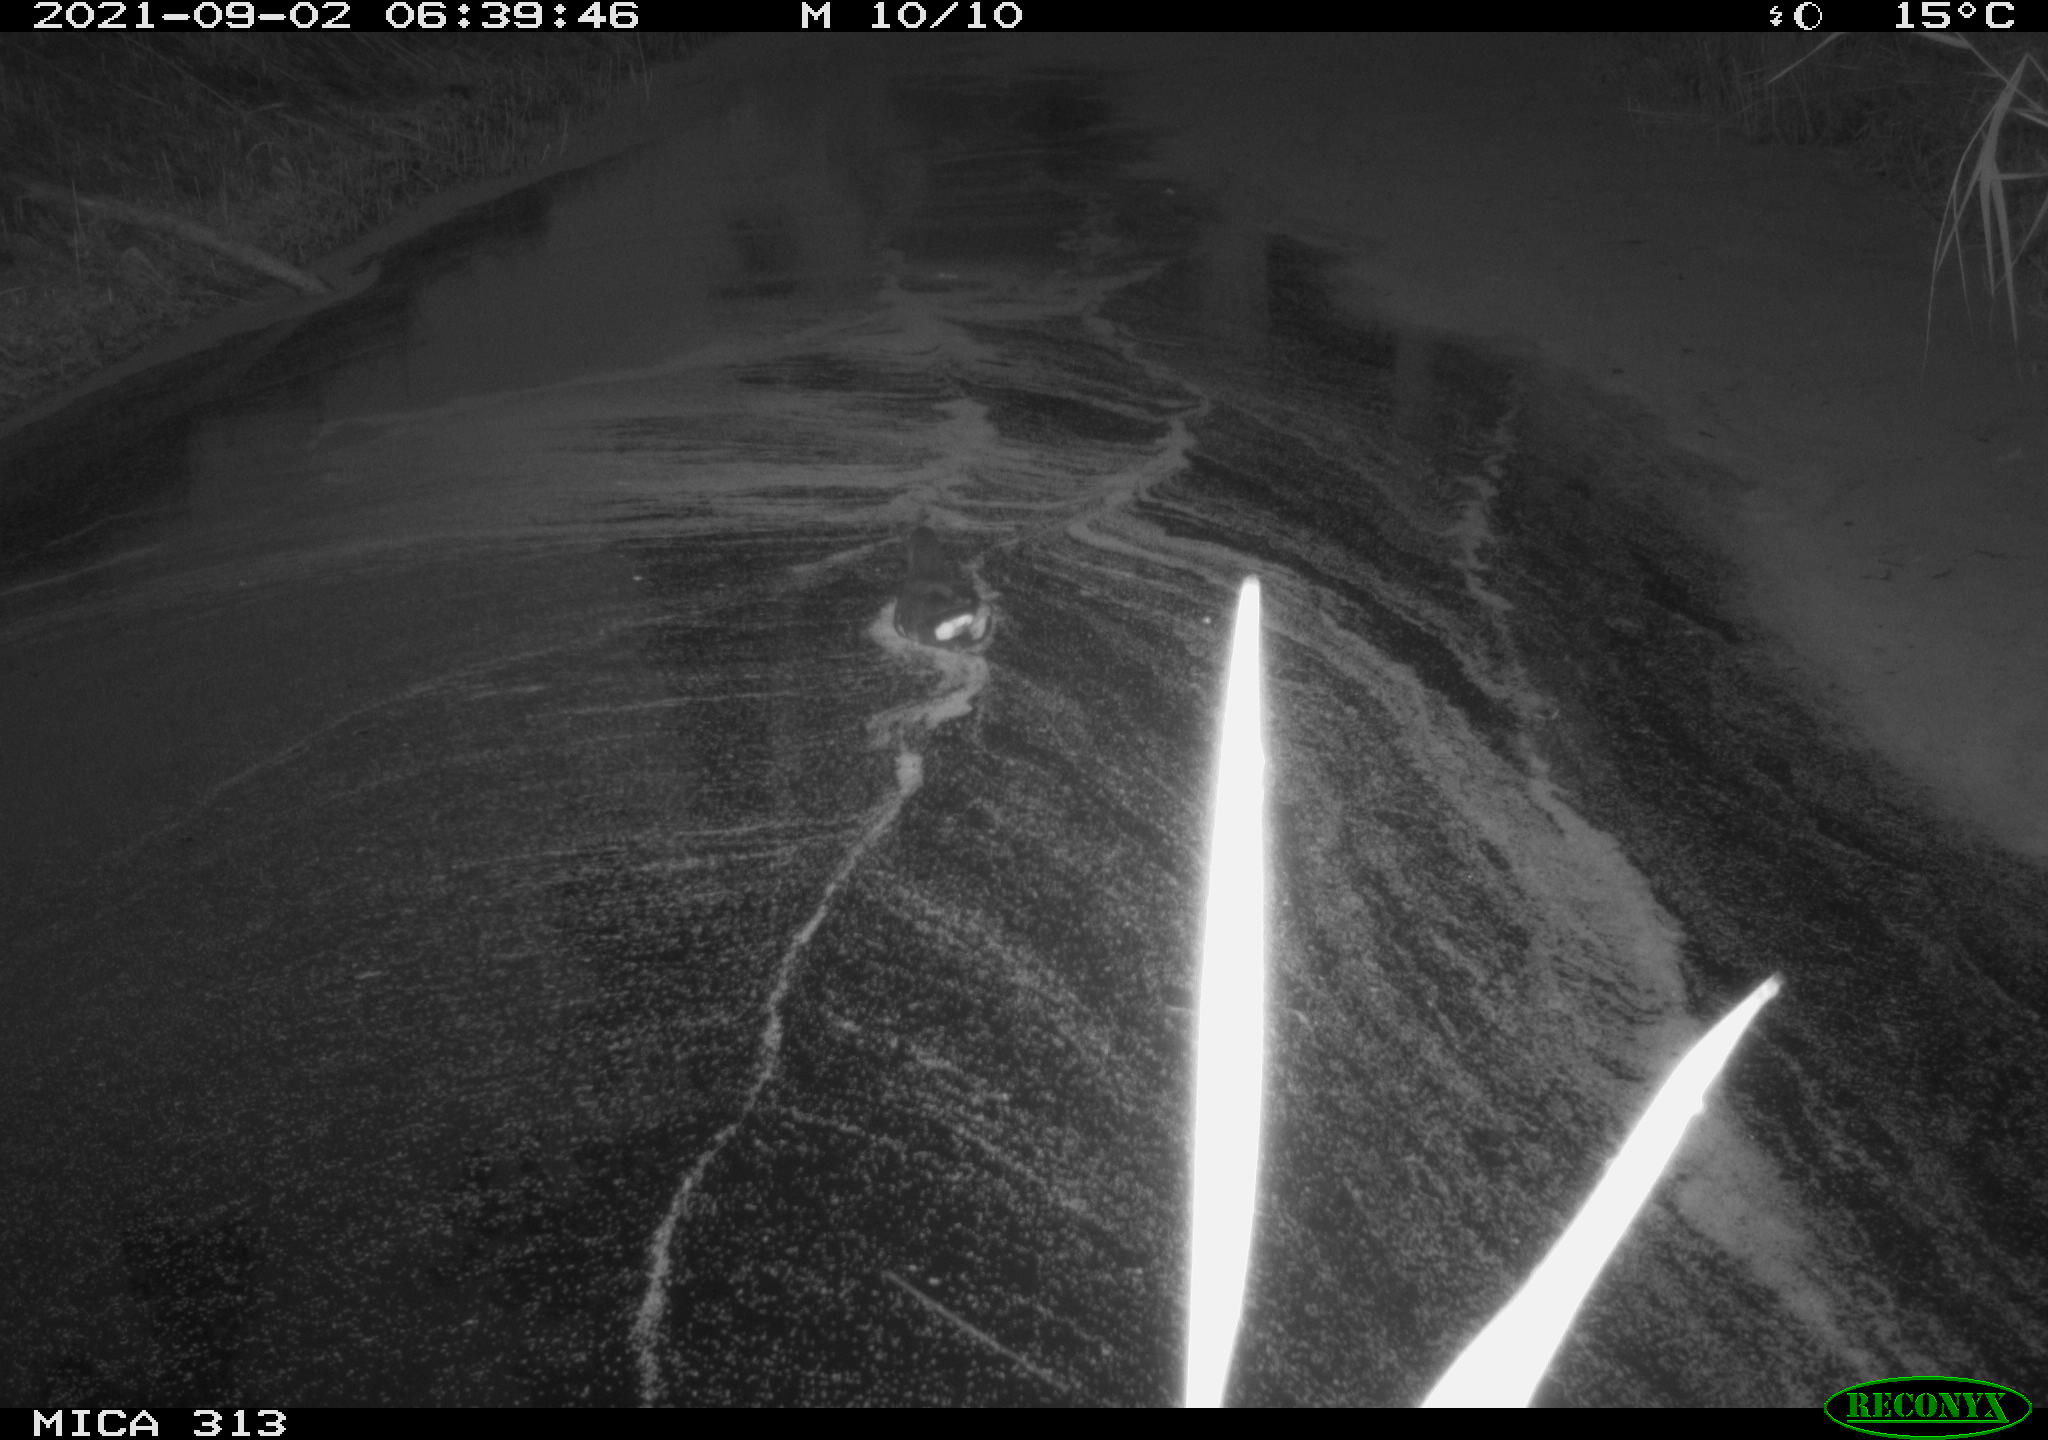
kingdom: Animalia
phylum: Chordata
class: Aves
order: Gruiformes
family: Rallidae
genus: Gallinula
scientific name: Gallinula chloropus
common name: Common moorhen
